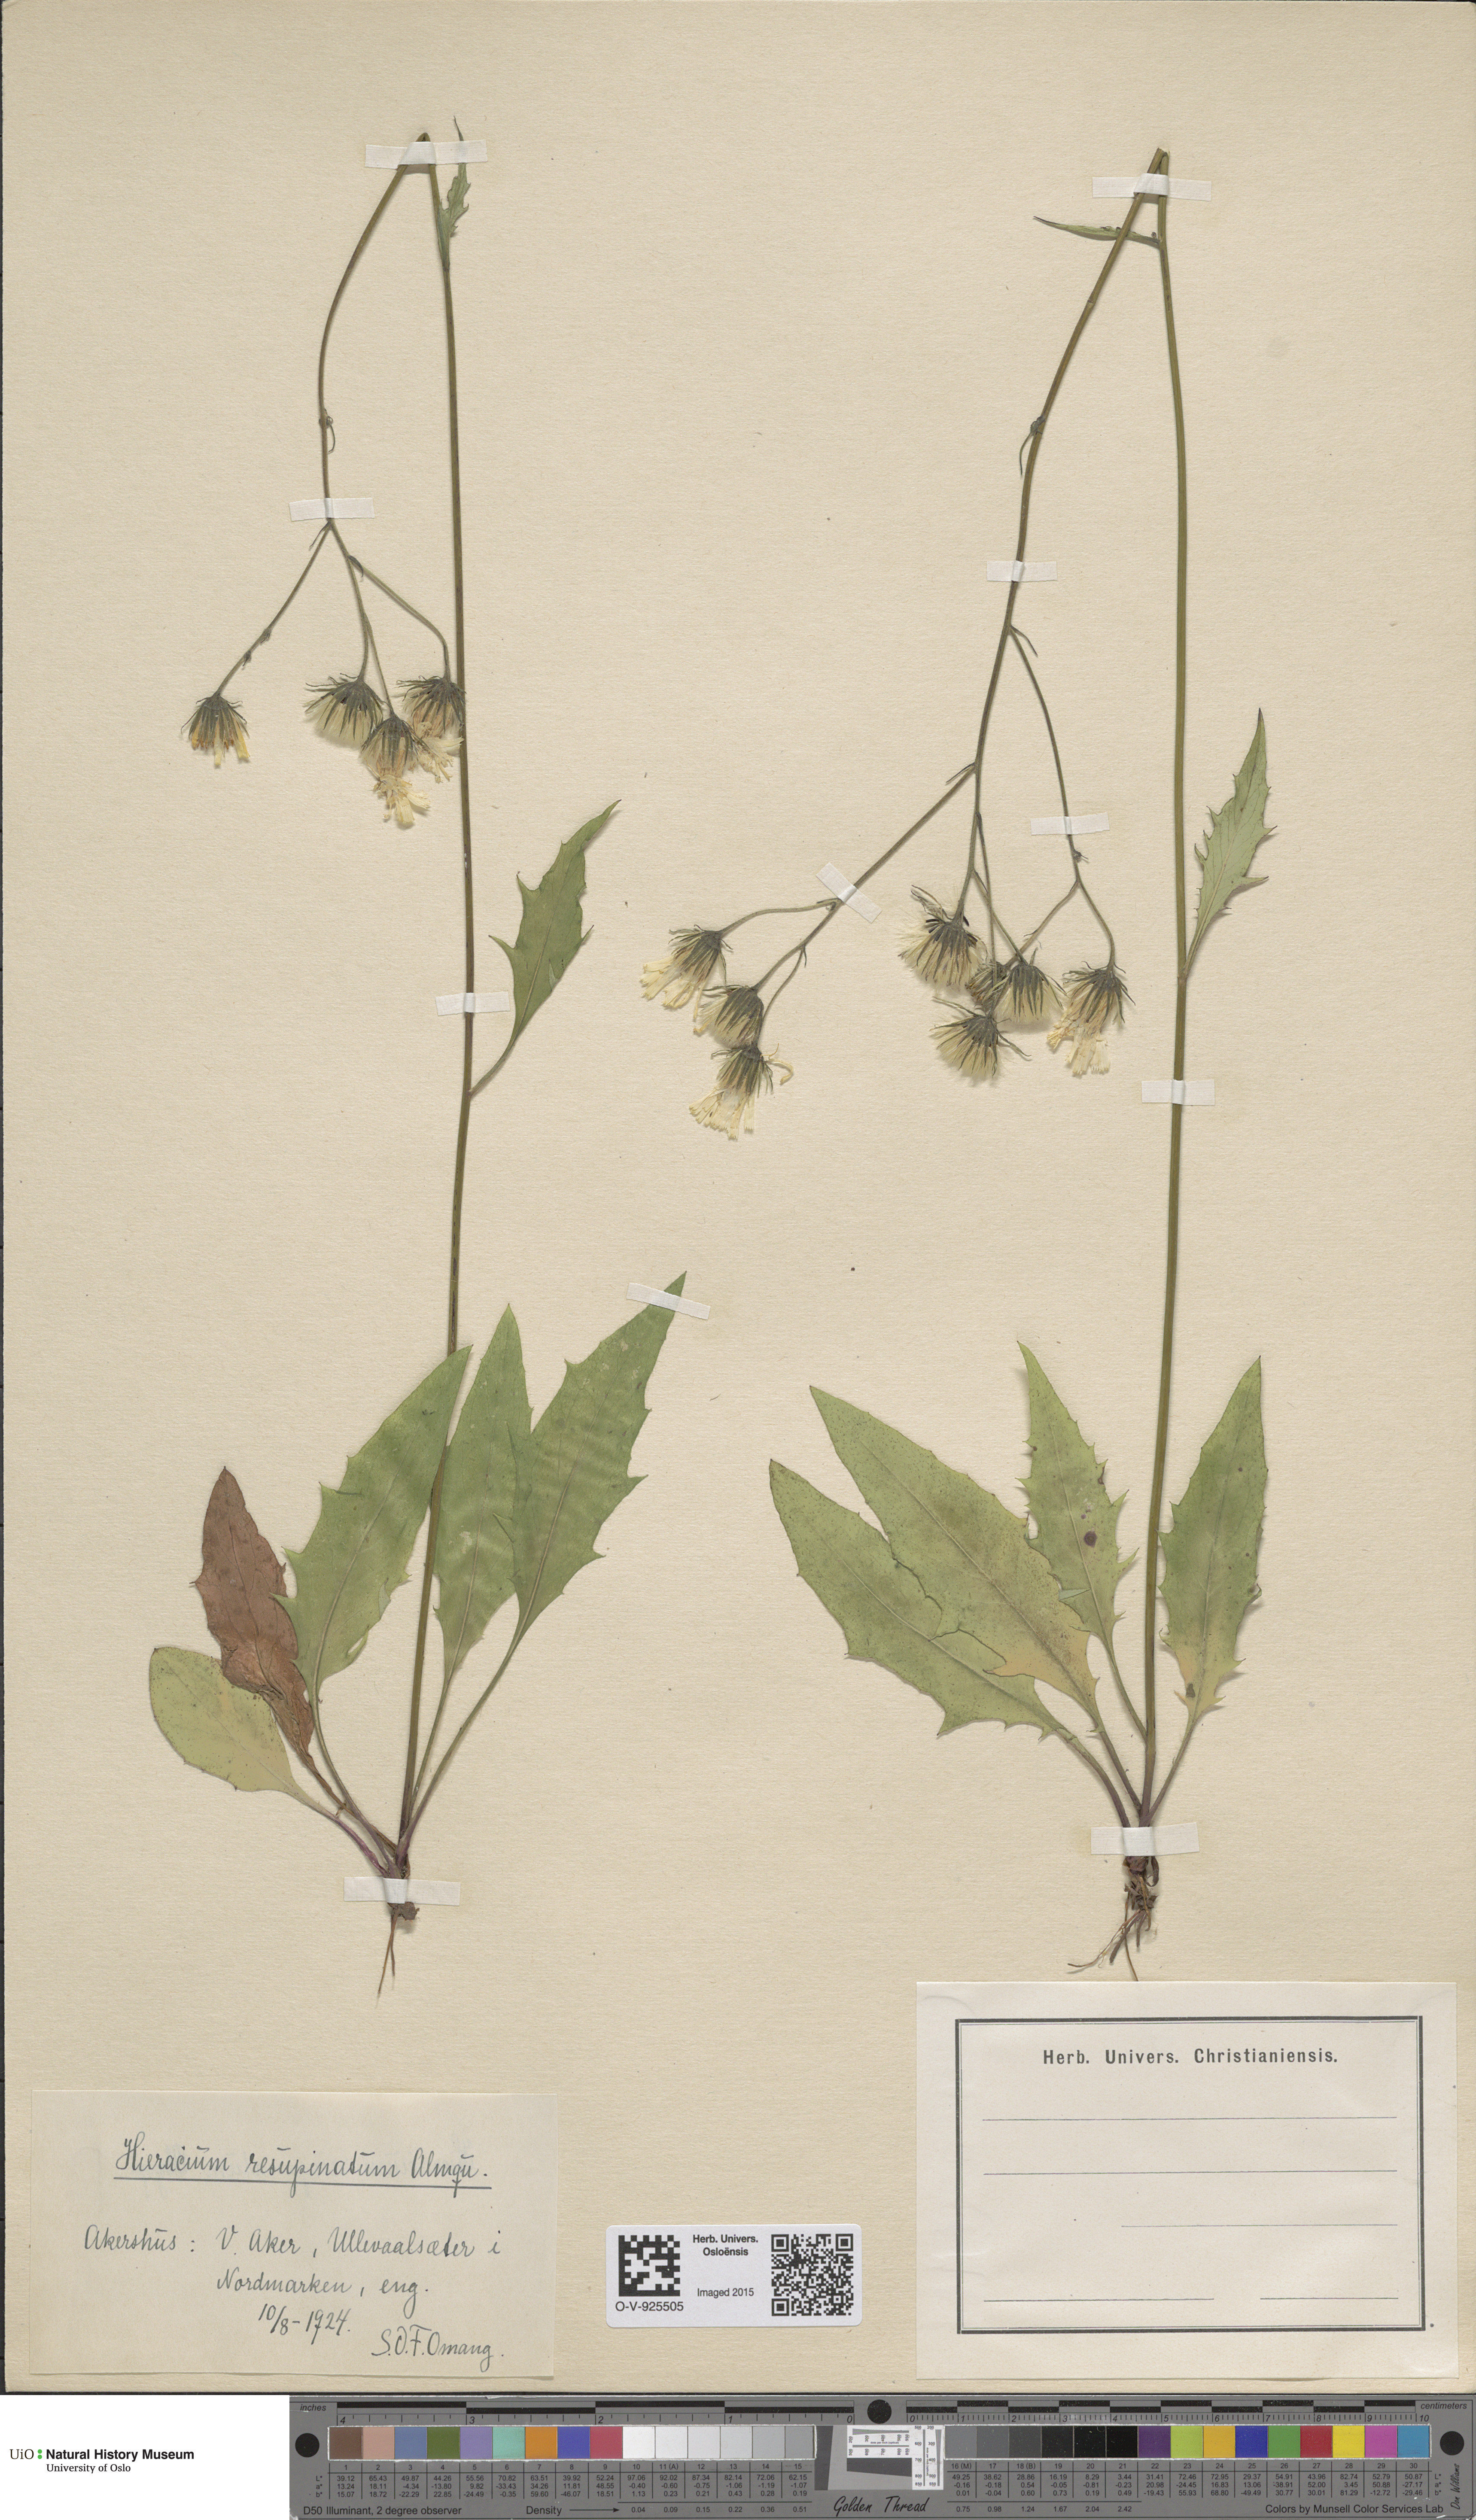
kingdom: Plantae
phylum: Tracheophyta
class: Magnoliopsida
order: Asterales
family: Asteraceae
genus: Hieracium
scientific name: Hieracium resupinatum
